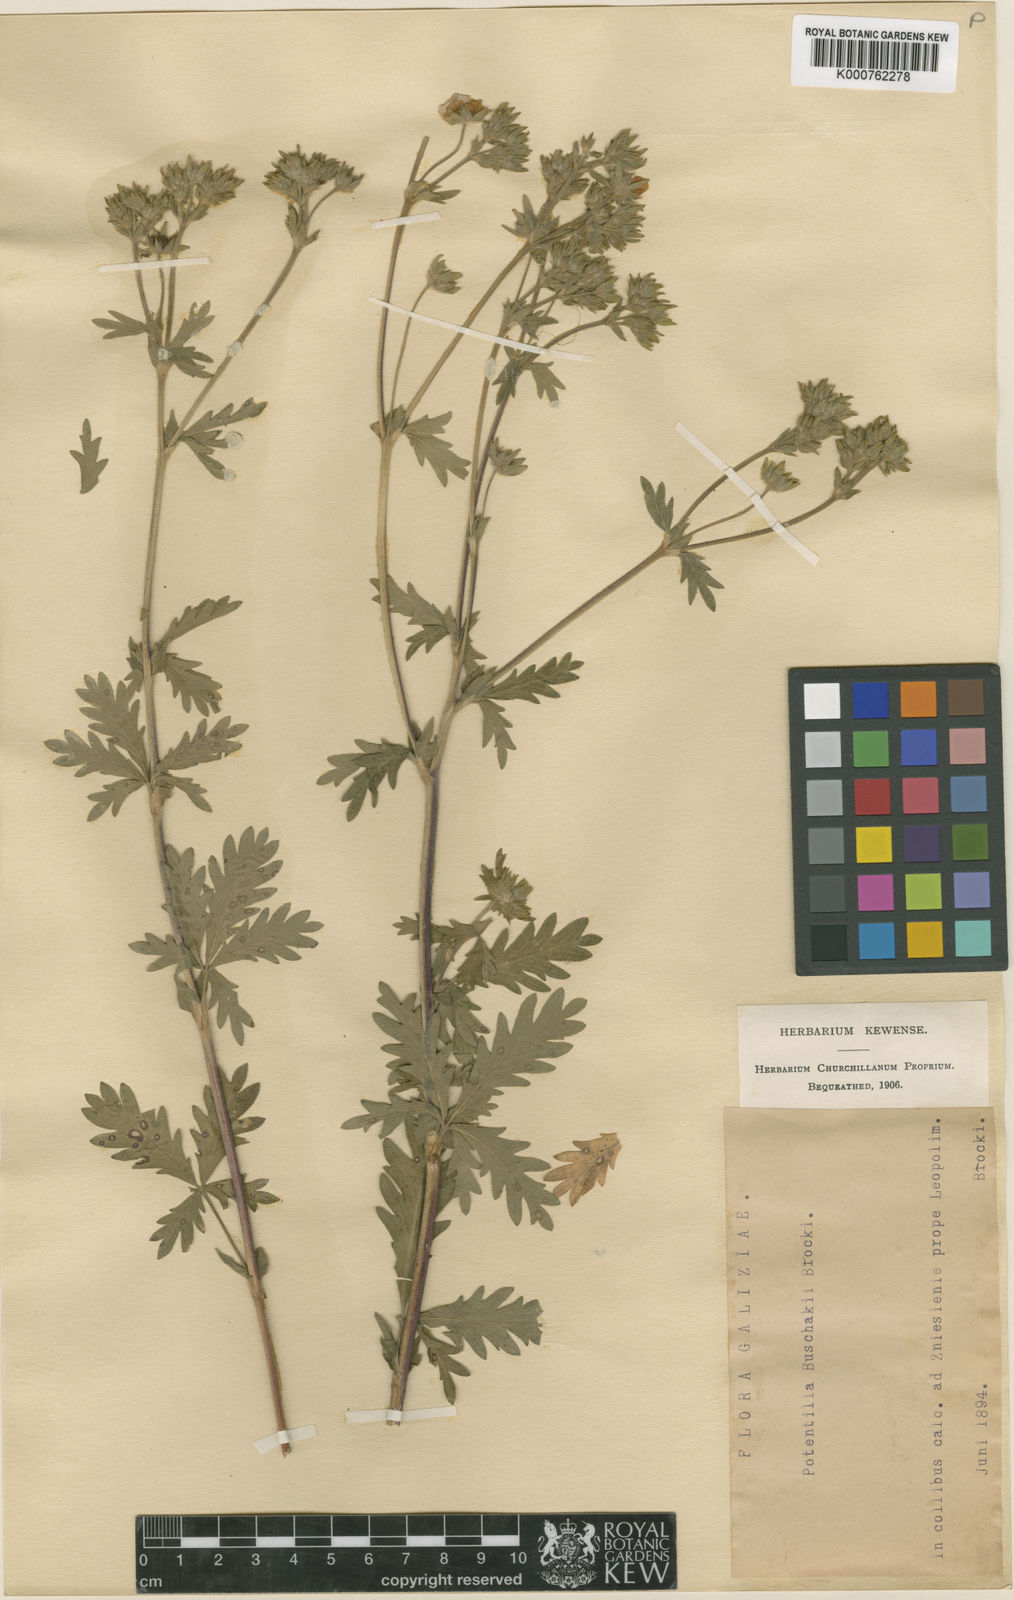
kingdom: Plantae
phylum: Tracheophyta
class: Magnoliopsida
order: Rosales
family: Rosaceae
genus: Potentilla
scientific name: Potentilla
